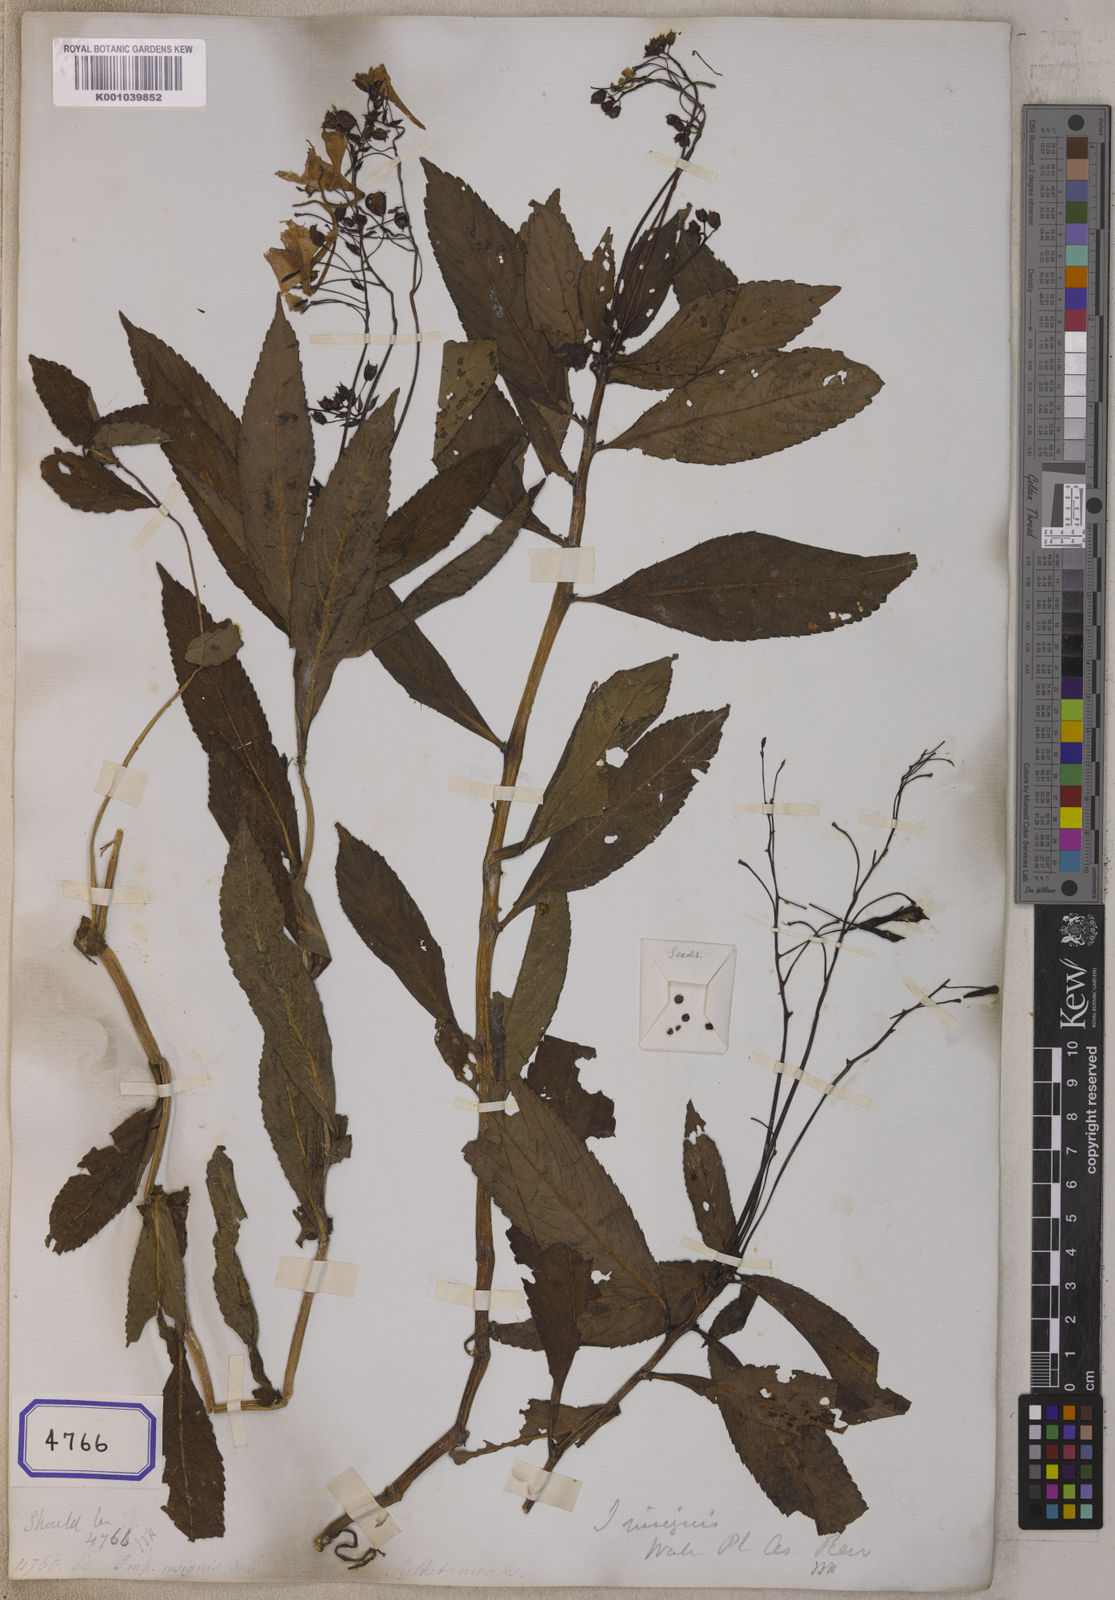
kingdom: Plantae
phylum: Tracheophyta
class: Magnoliopsida
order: Ericales
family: Balsaminaceae
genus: Impatiens
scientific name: Impatiens insignis
